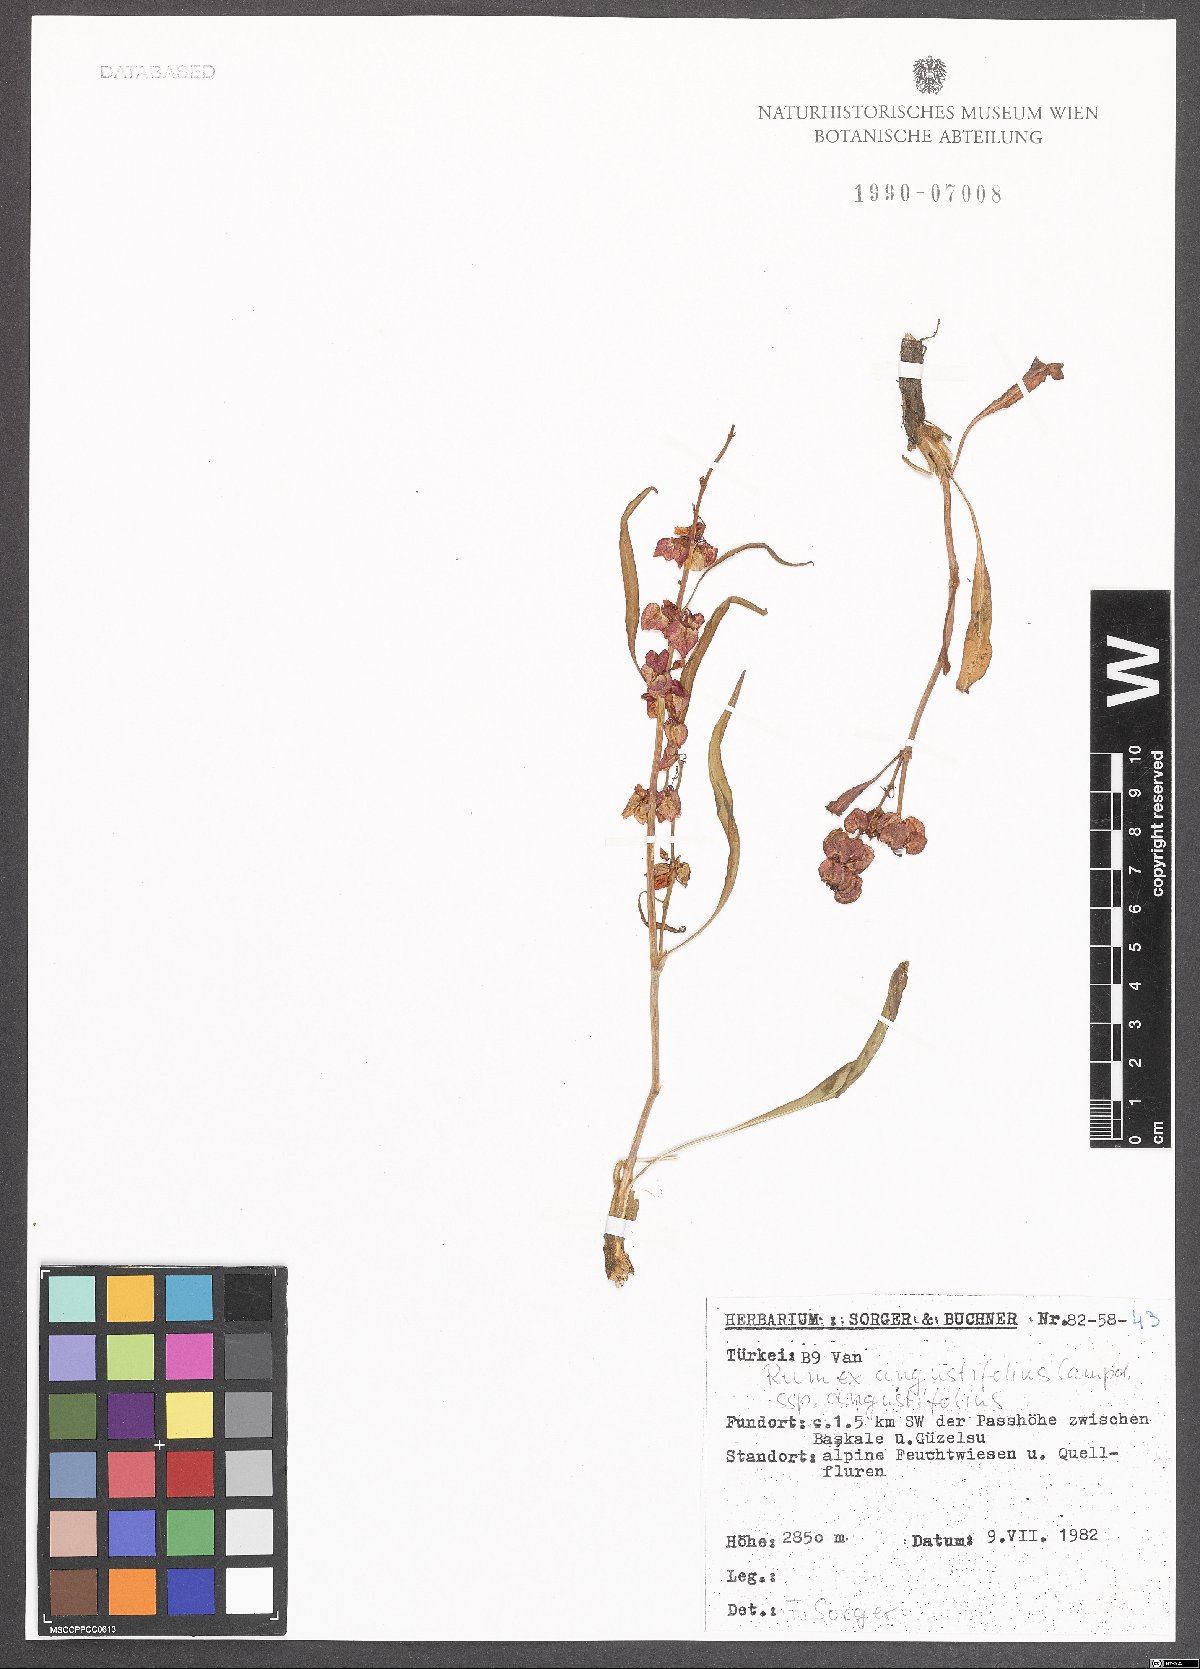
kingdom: Plantae
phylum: Tracheophyta
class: Magnoliopsida
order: Caryophyllales
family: Polygonaceae
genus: Rumex
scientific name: Rumex angustifolius
